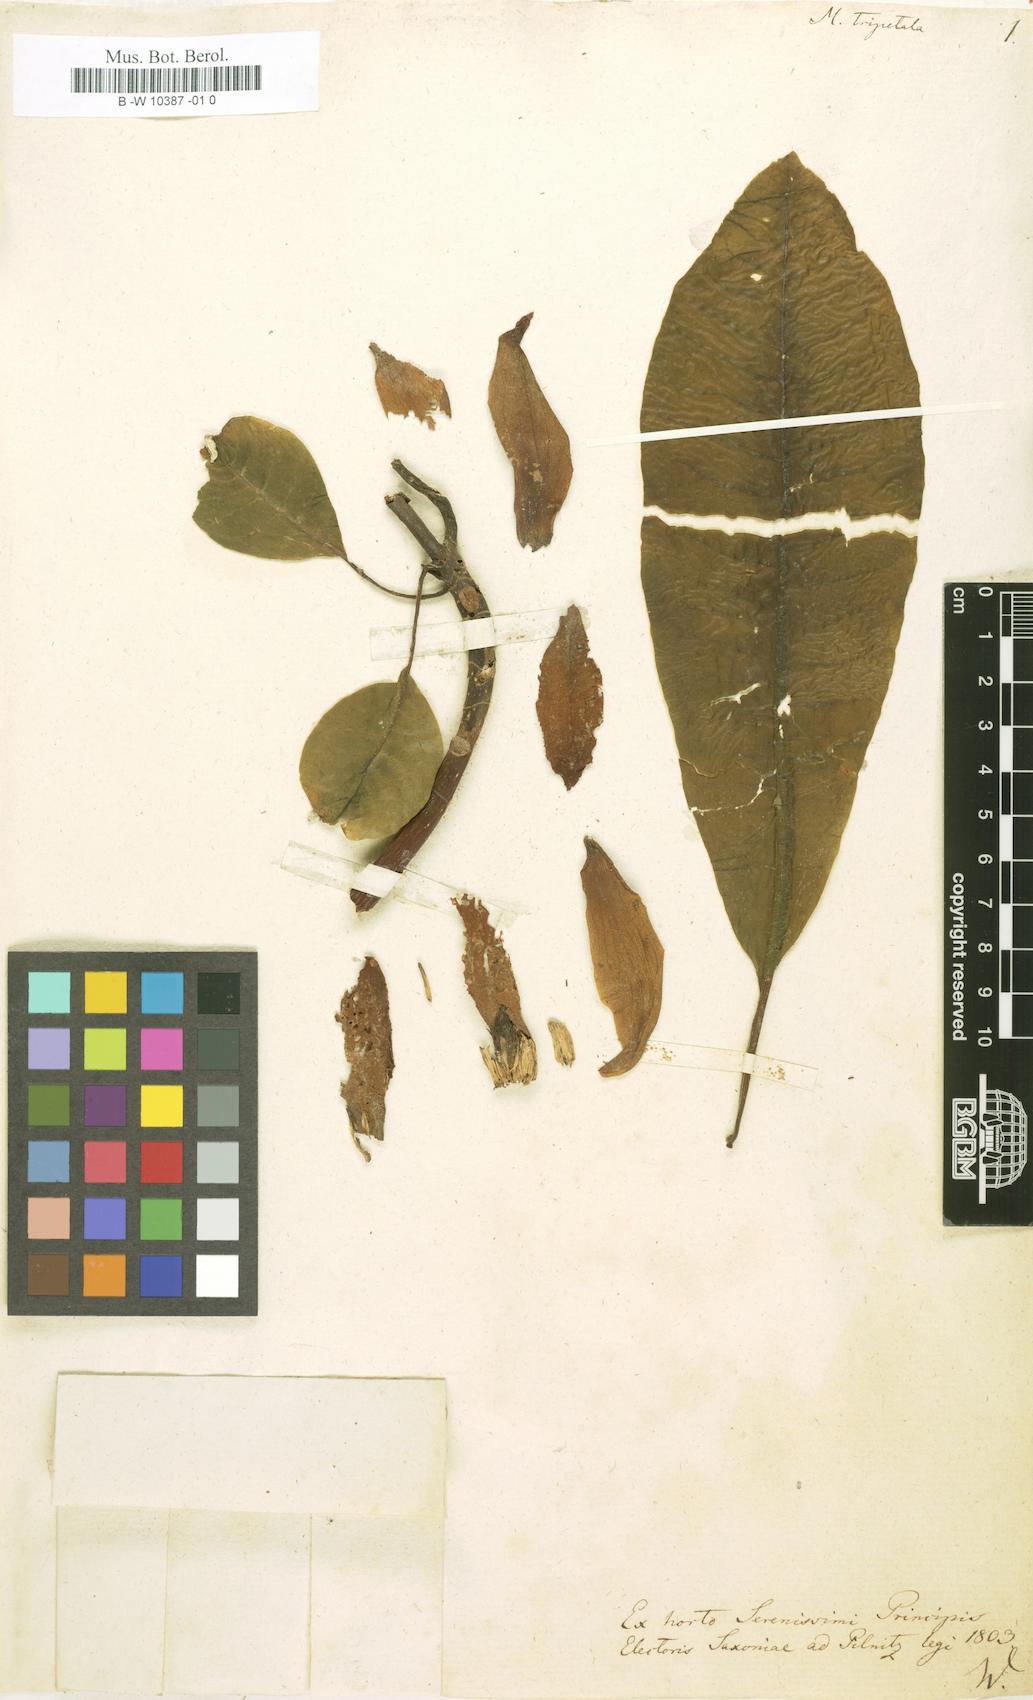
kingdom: Plantae
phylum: Tracheophyta
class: Magnoliopsida
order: Magnoliales
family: Magnoliaceae
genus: Magnolia
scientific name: Magnolia tripetala
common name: Umbrella magnolia
